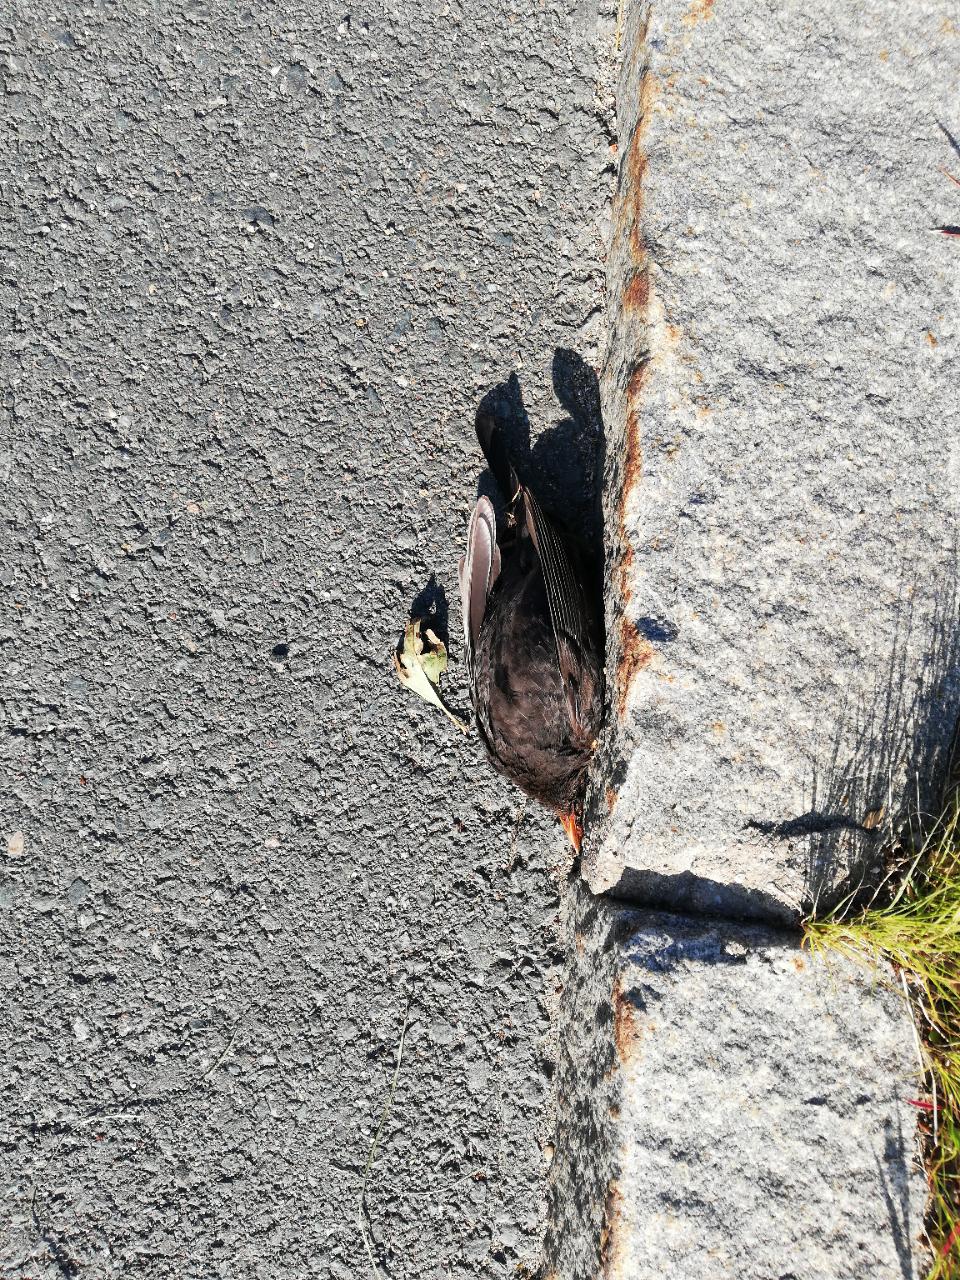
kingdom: Animalia
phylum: Chordata
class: Aves
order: Passeriformes
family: Turdidae
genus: Turdus
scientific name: Turdus merula
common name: Common blackbird
